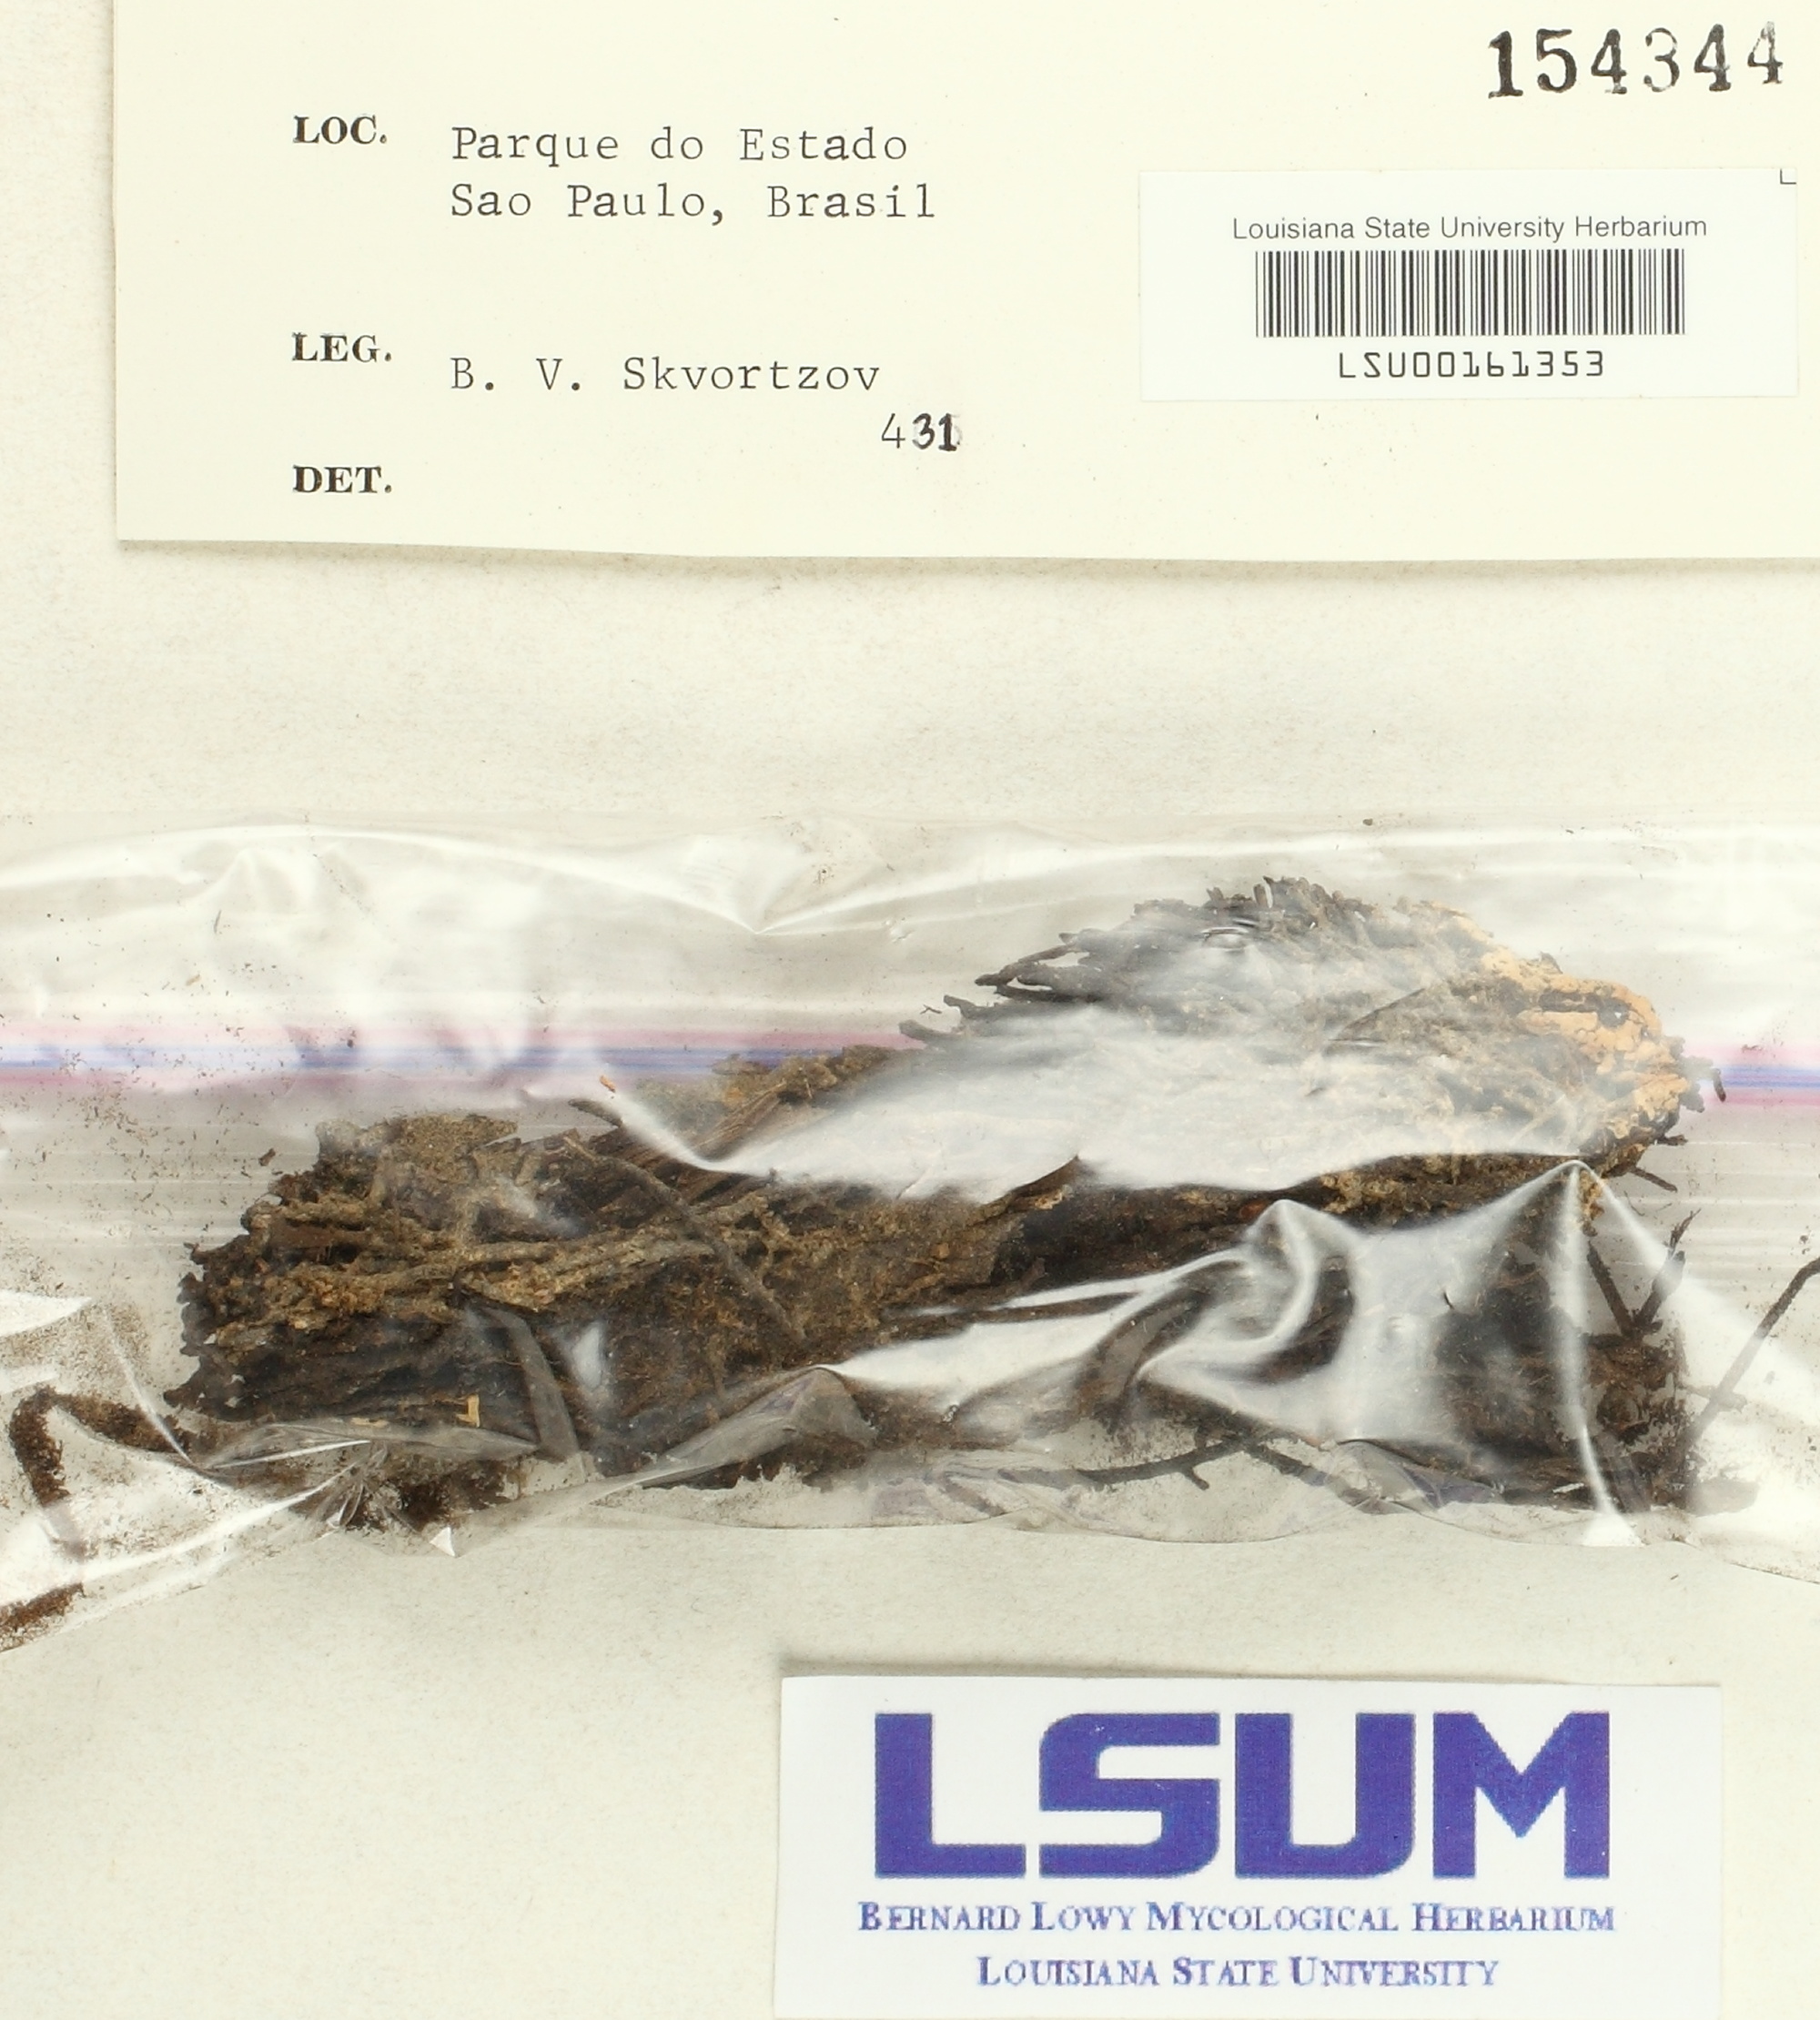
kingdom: Fungi
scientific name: Fungi
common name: Fungi
